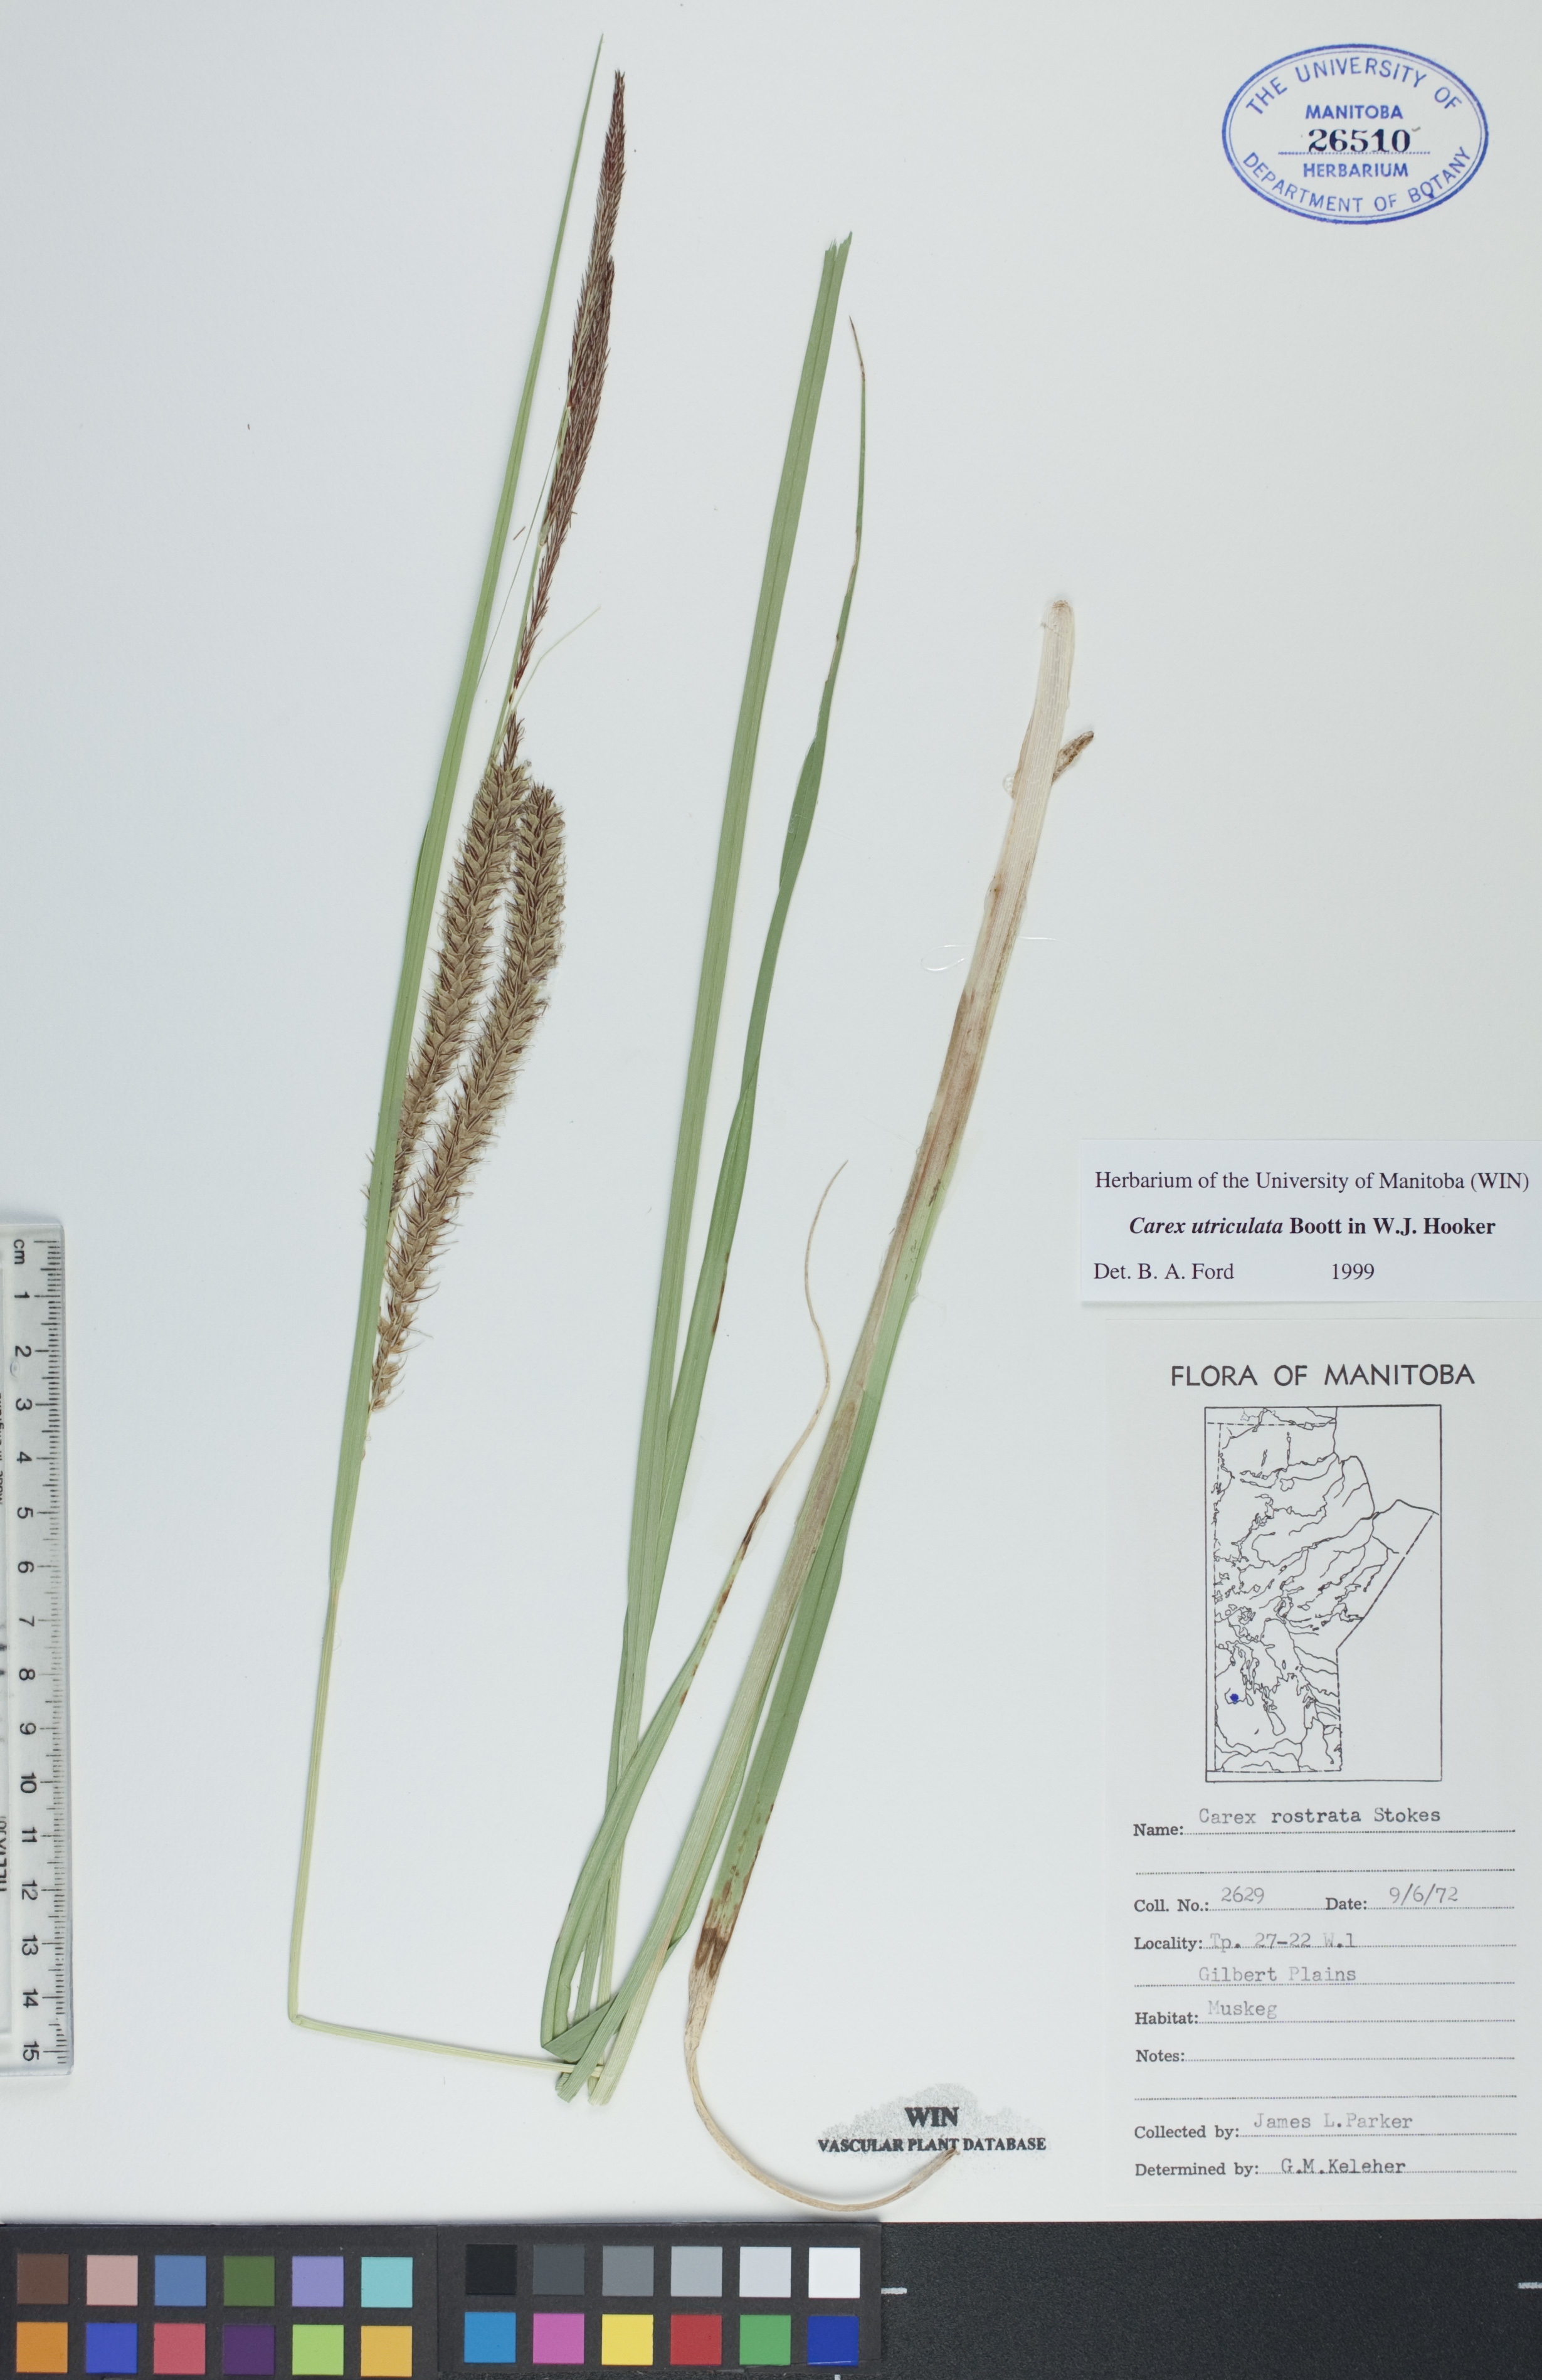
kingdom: Plantae
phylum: Tracheophyta
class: Liliopsida
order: Poales
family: Cyperaceae
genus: Carex
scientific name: Carex utriculata
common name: Beaked sedge
